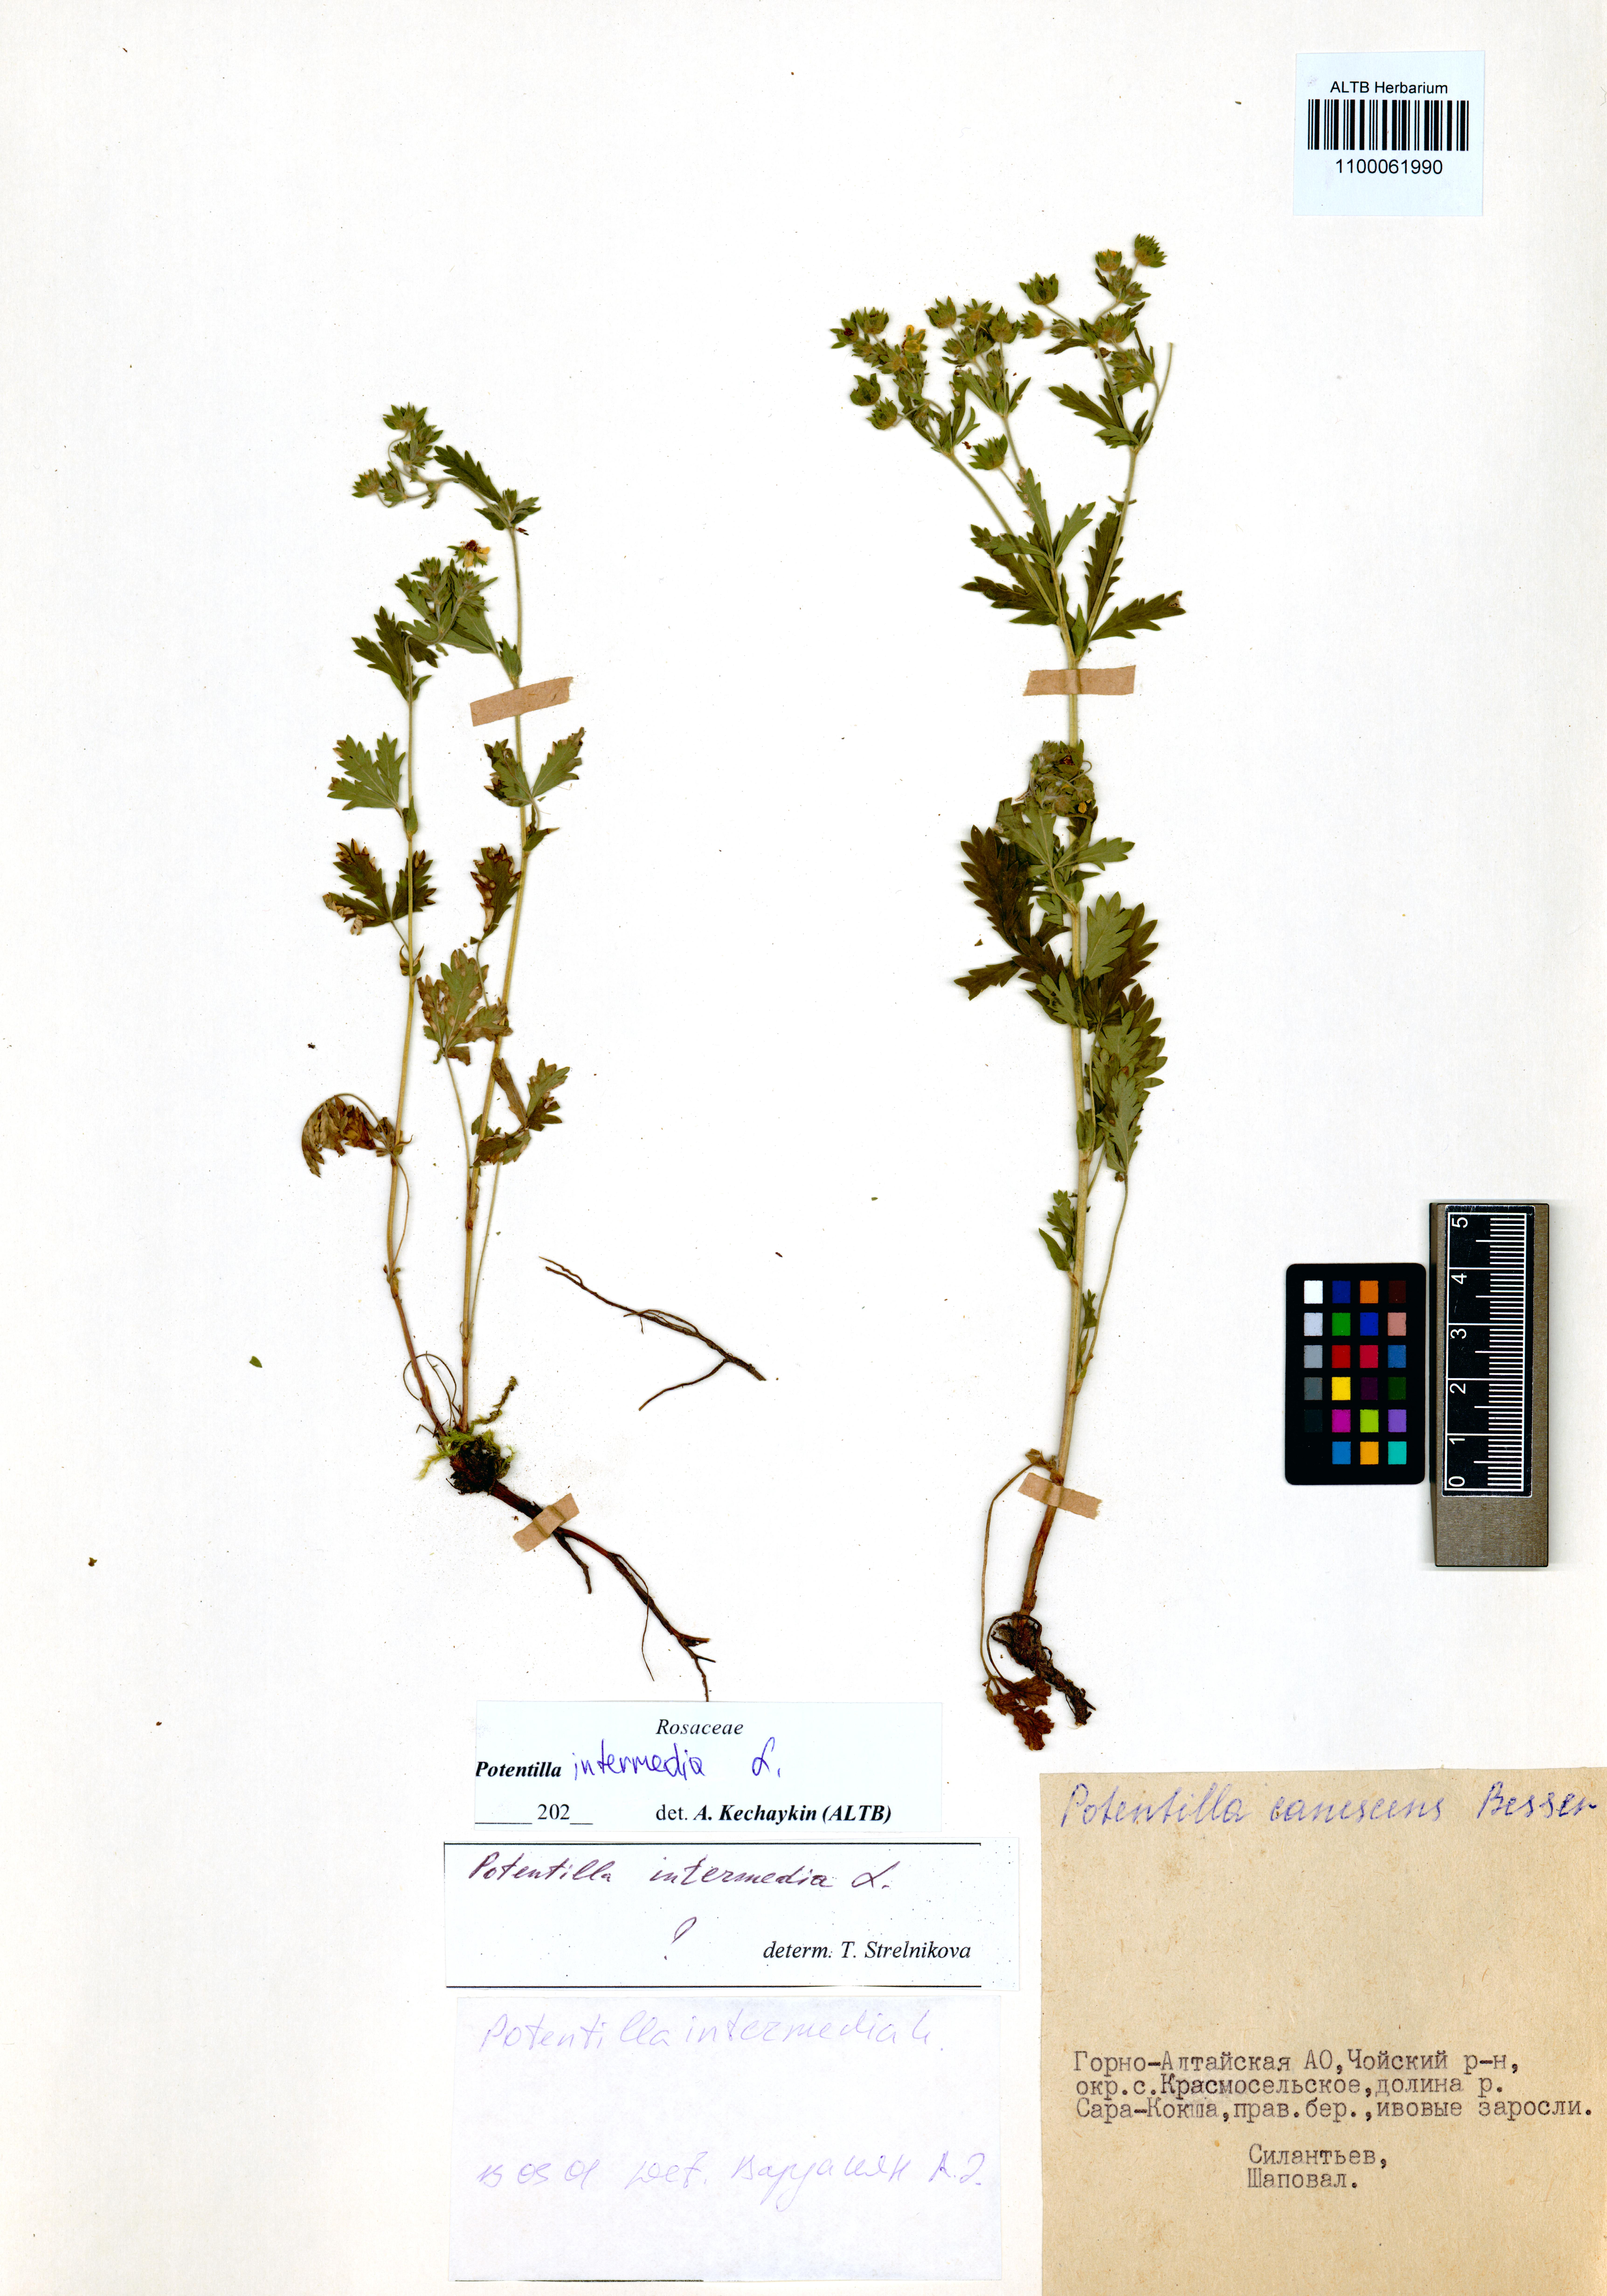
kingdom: Plantae
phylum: Tracheophyta
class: Magnoliopsida
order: Rosales
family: Rosaceae
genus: Potentilla
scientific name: Potentilla intermedia
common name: Downy cinquefoil
